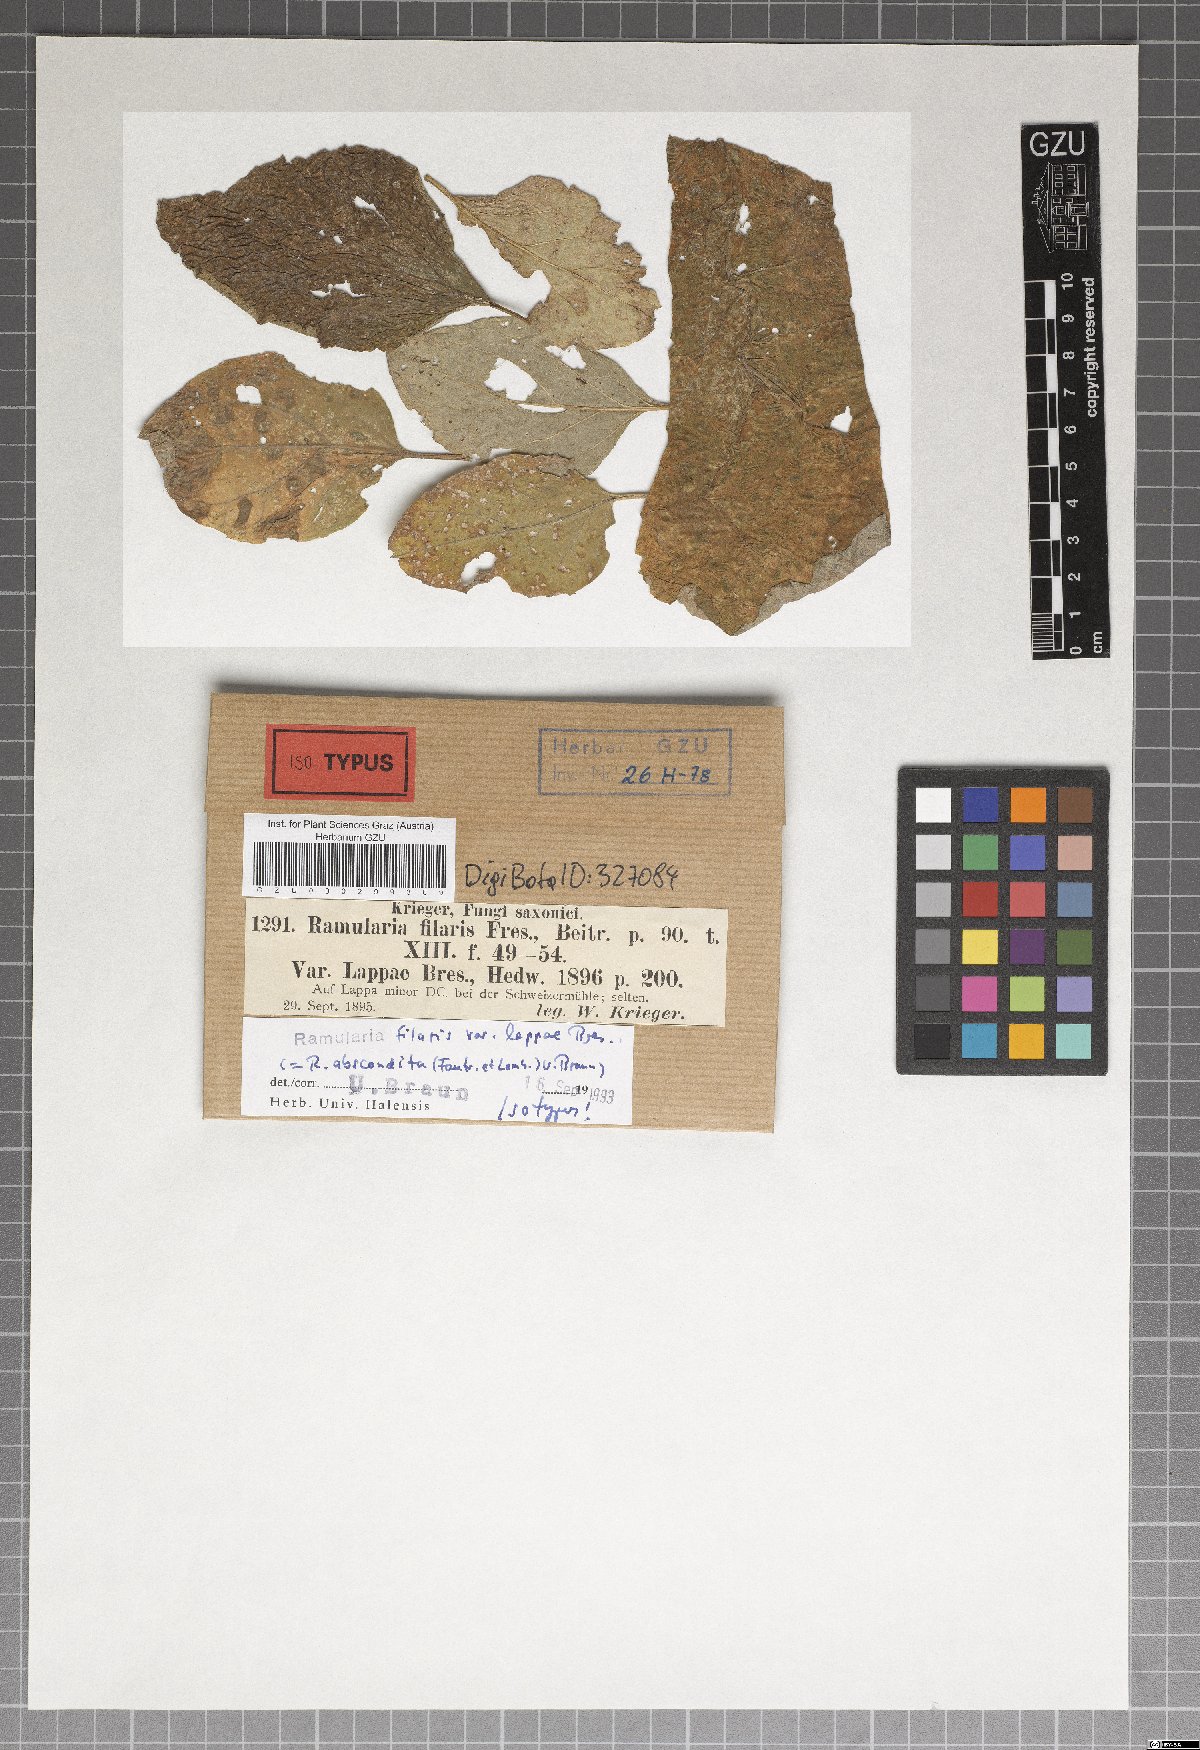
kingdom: Fungi
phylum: Ascomycota
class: Dothideomycetes
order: Mycosphaerellales
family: Mycosphaerellaceae
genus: Ramularia
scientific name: Ramularia filaris
